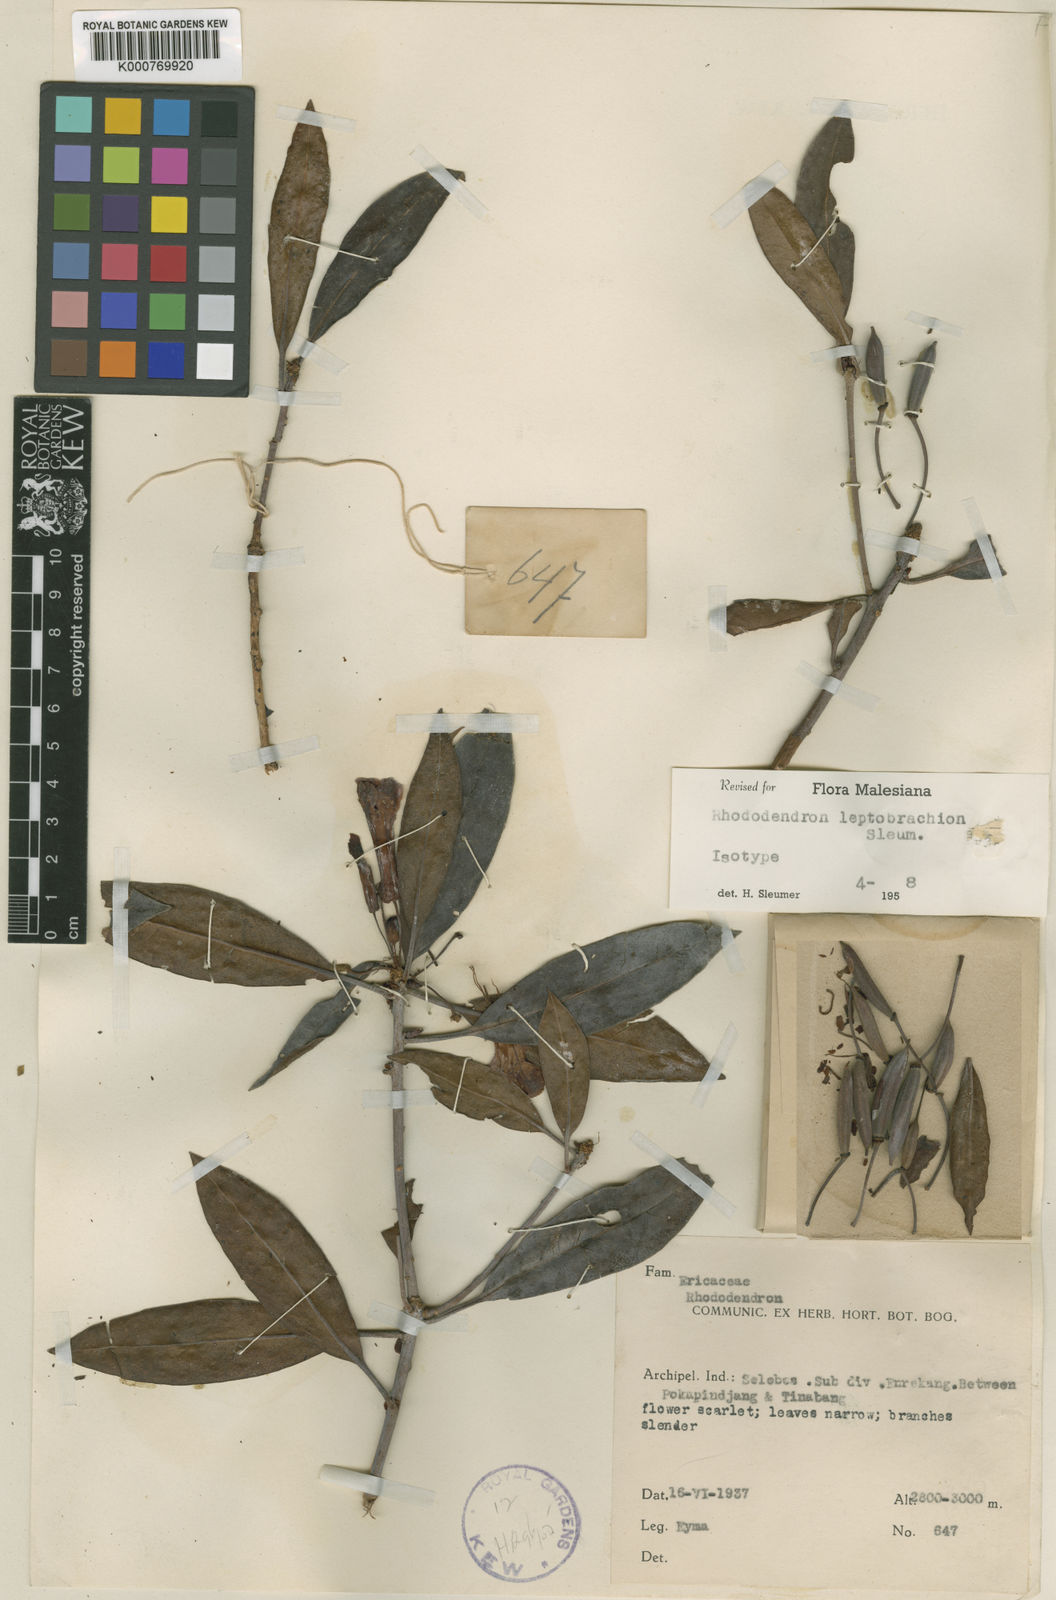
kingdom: Plantae
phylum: Tracheophyta
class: Magnoliopsida
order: Ericales
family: Ericaceae
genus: Rhododendron
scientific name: Rhododendron leptobrachion
